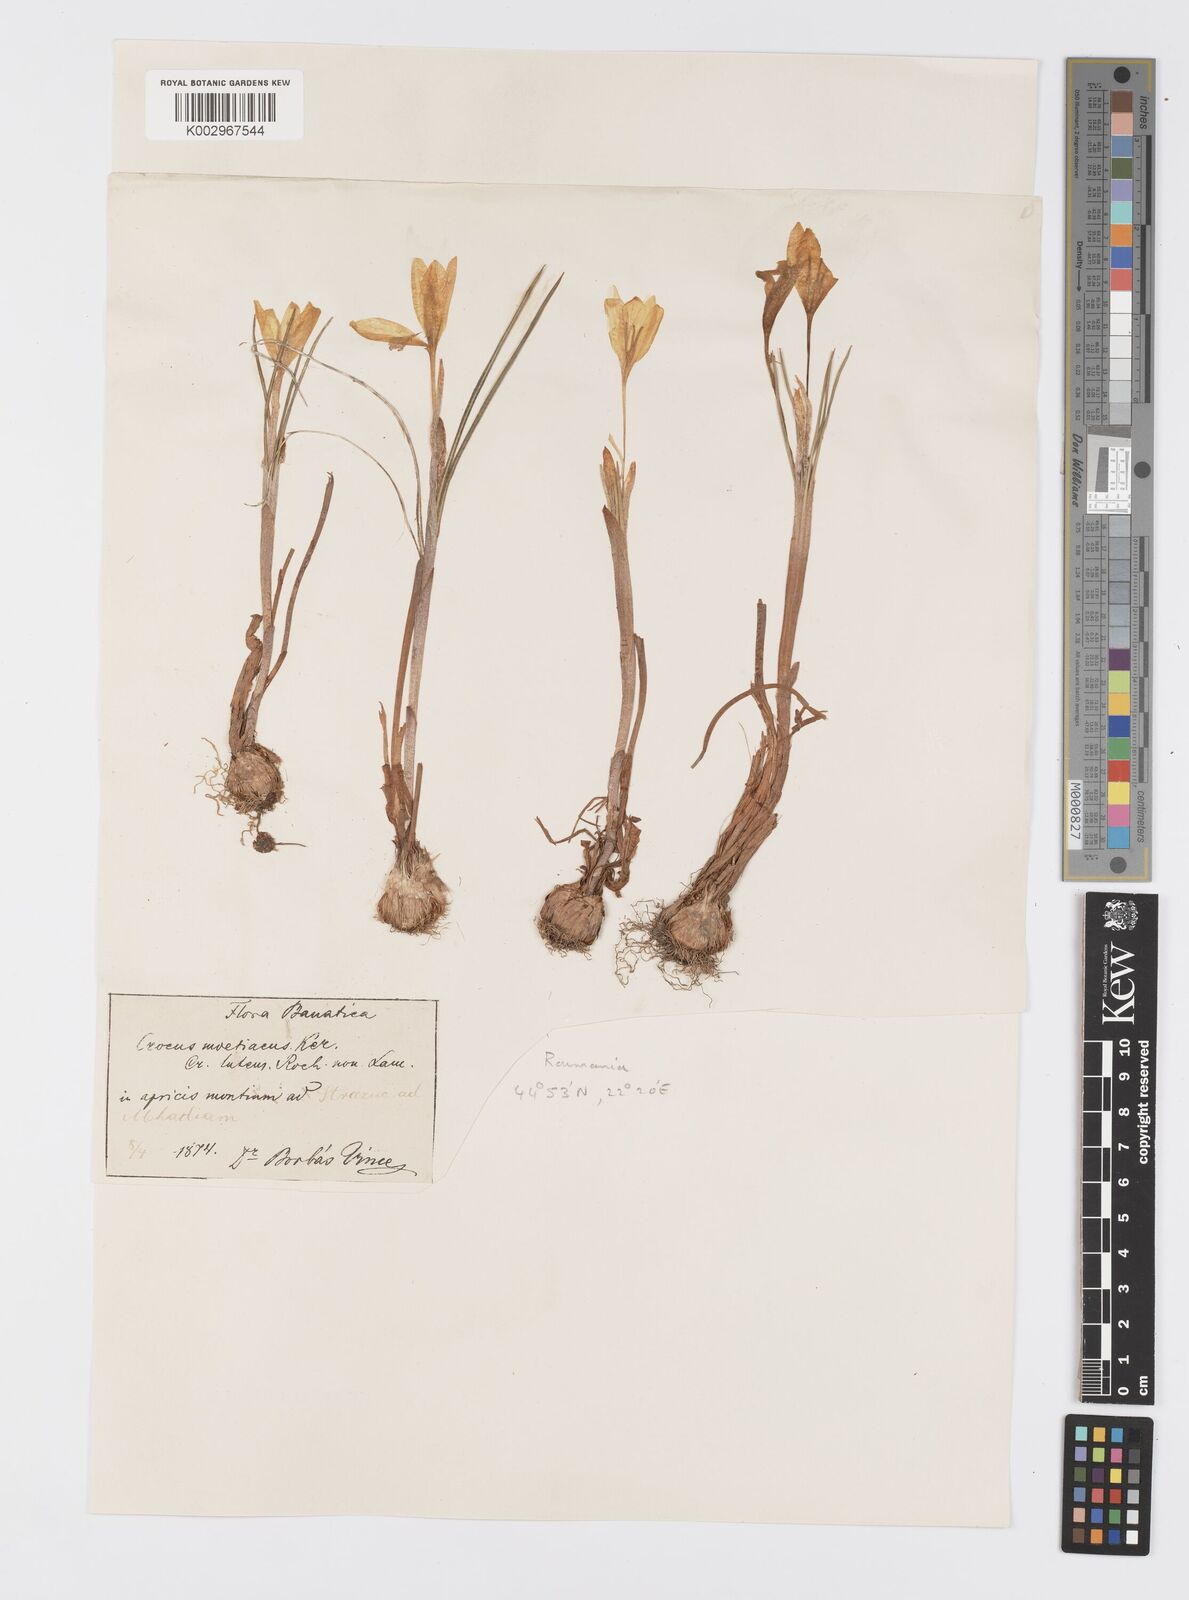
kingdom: Plantae
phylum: Tracheophyta
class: Liliopsida
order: Asparagales
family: Iridaceae
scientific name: Iridaceae
